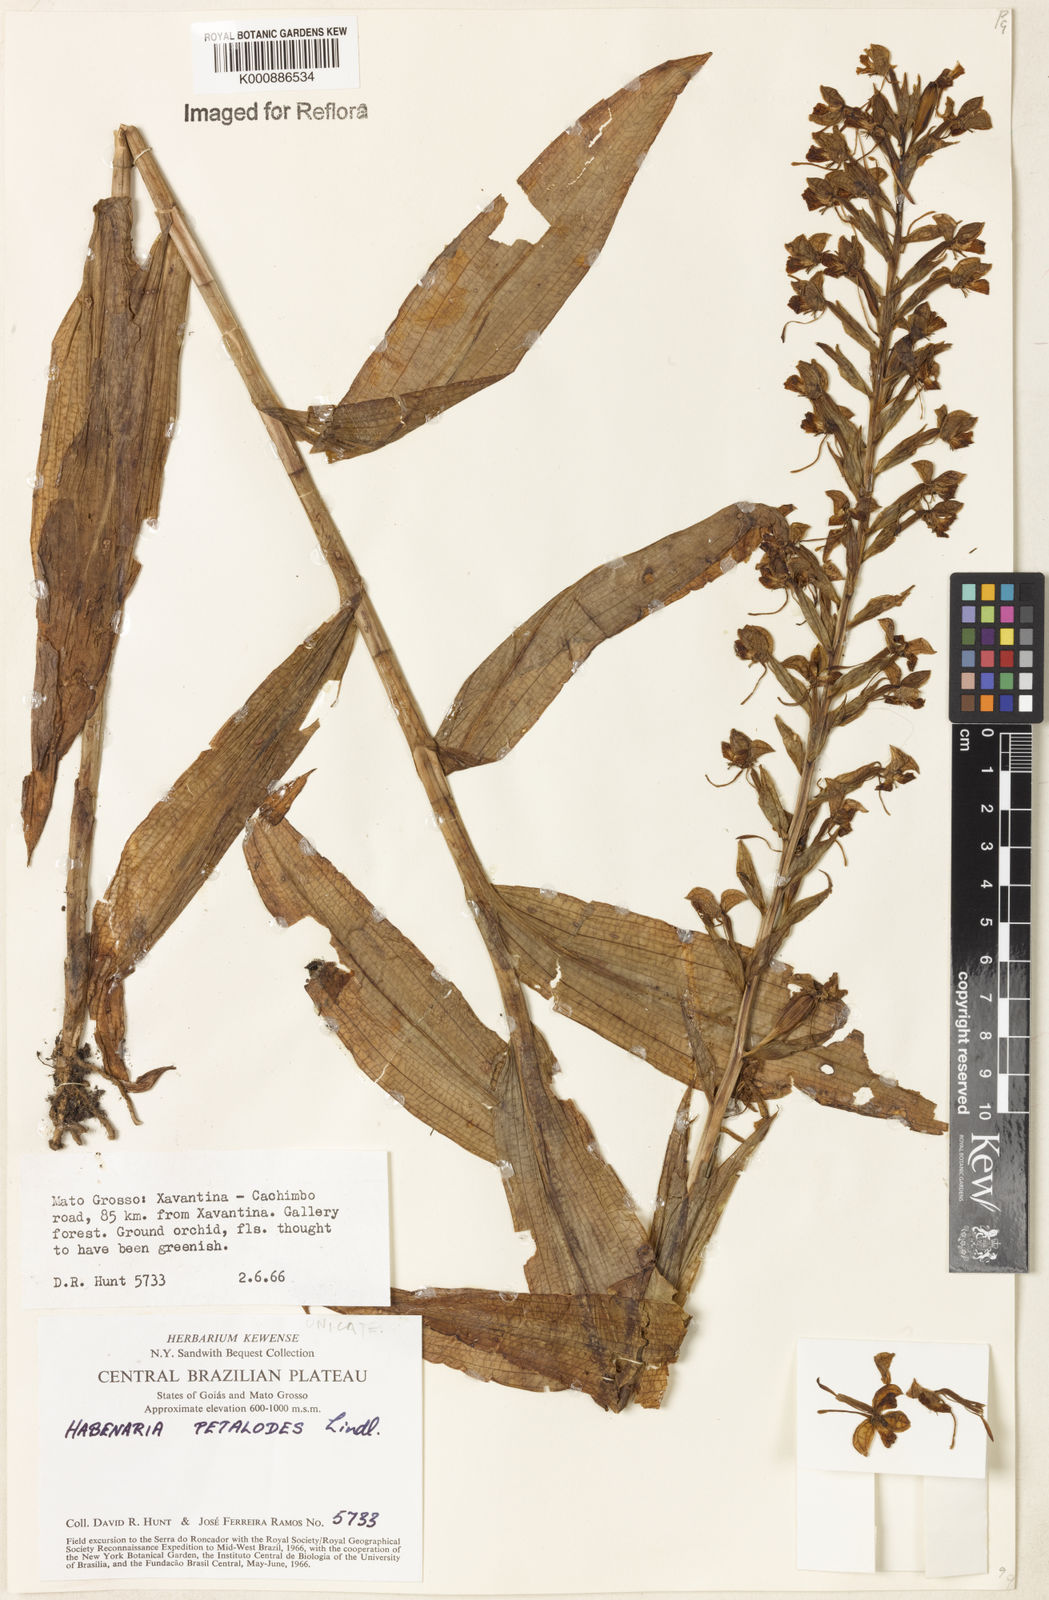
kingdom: Plantae
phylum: Tracheophyta
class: Liliopsida
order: Asparagales
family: Orchidaceae
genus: Habenaria
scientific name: Habenaria petalodes
